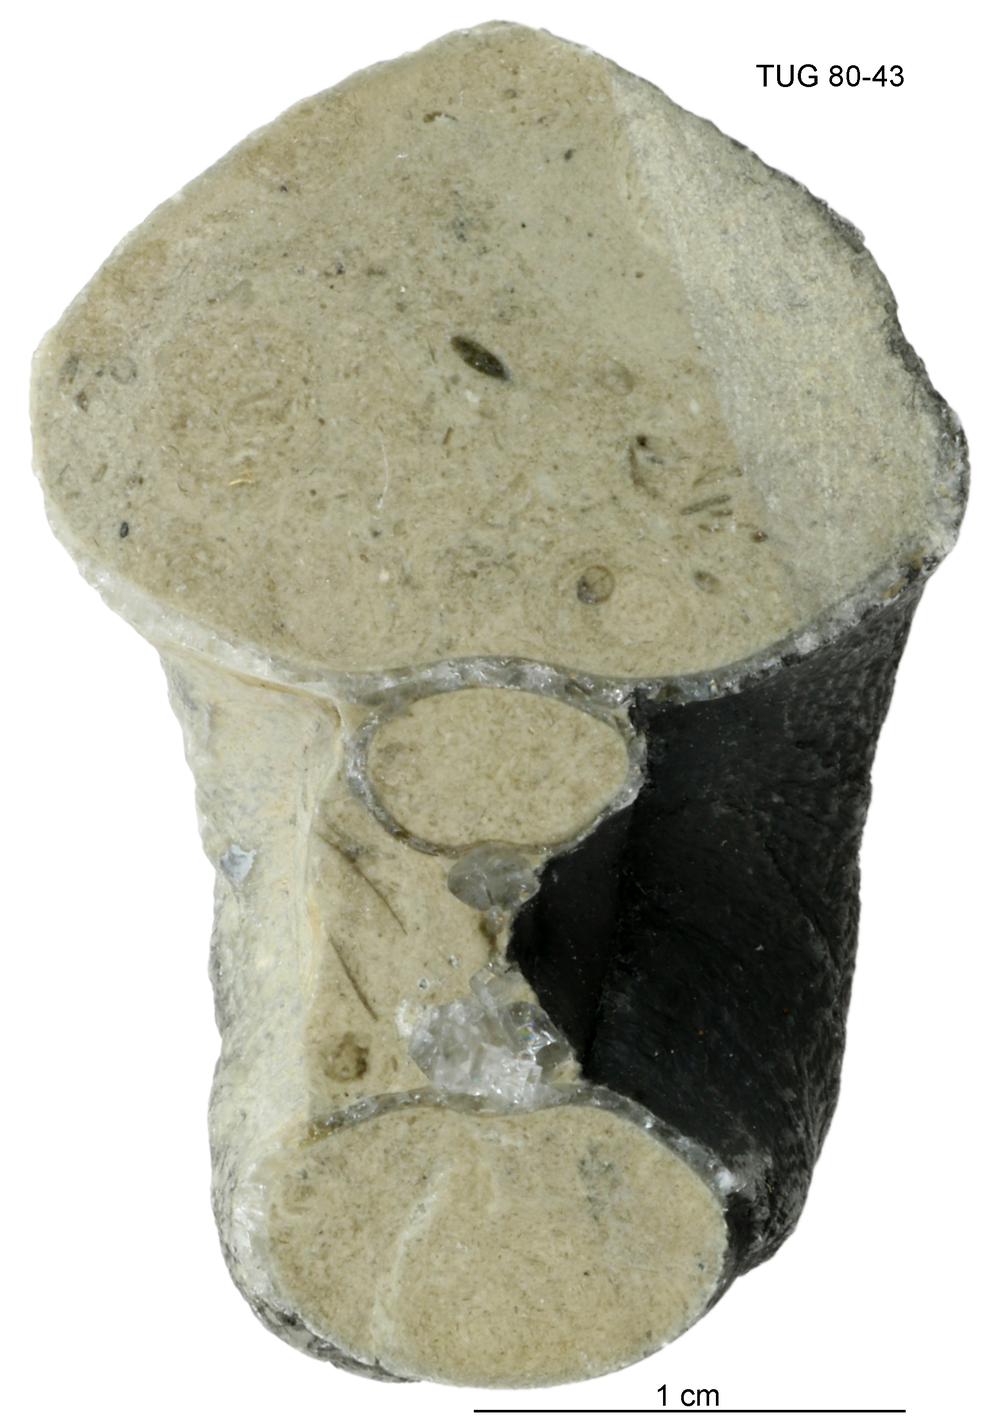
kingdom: Animalia
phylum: Mollusca
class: Gastropoda
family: Bucaniidae
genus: Bucania
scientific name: Bucania cornu
